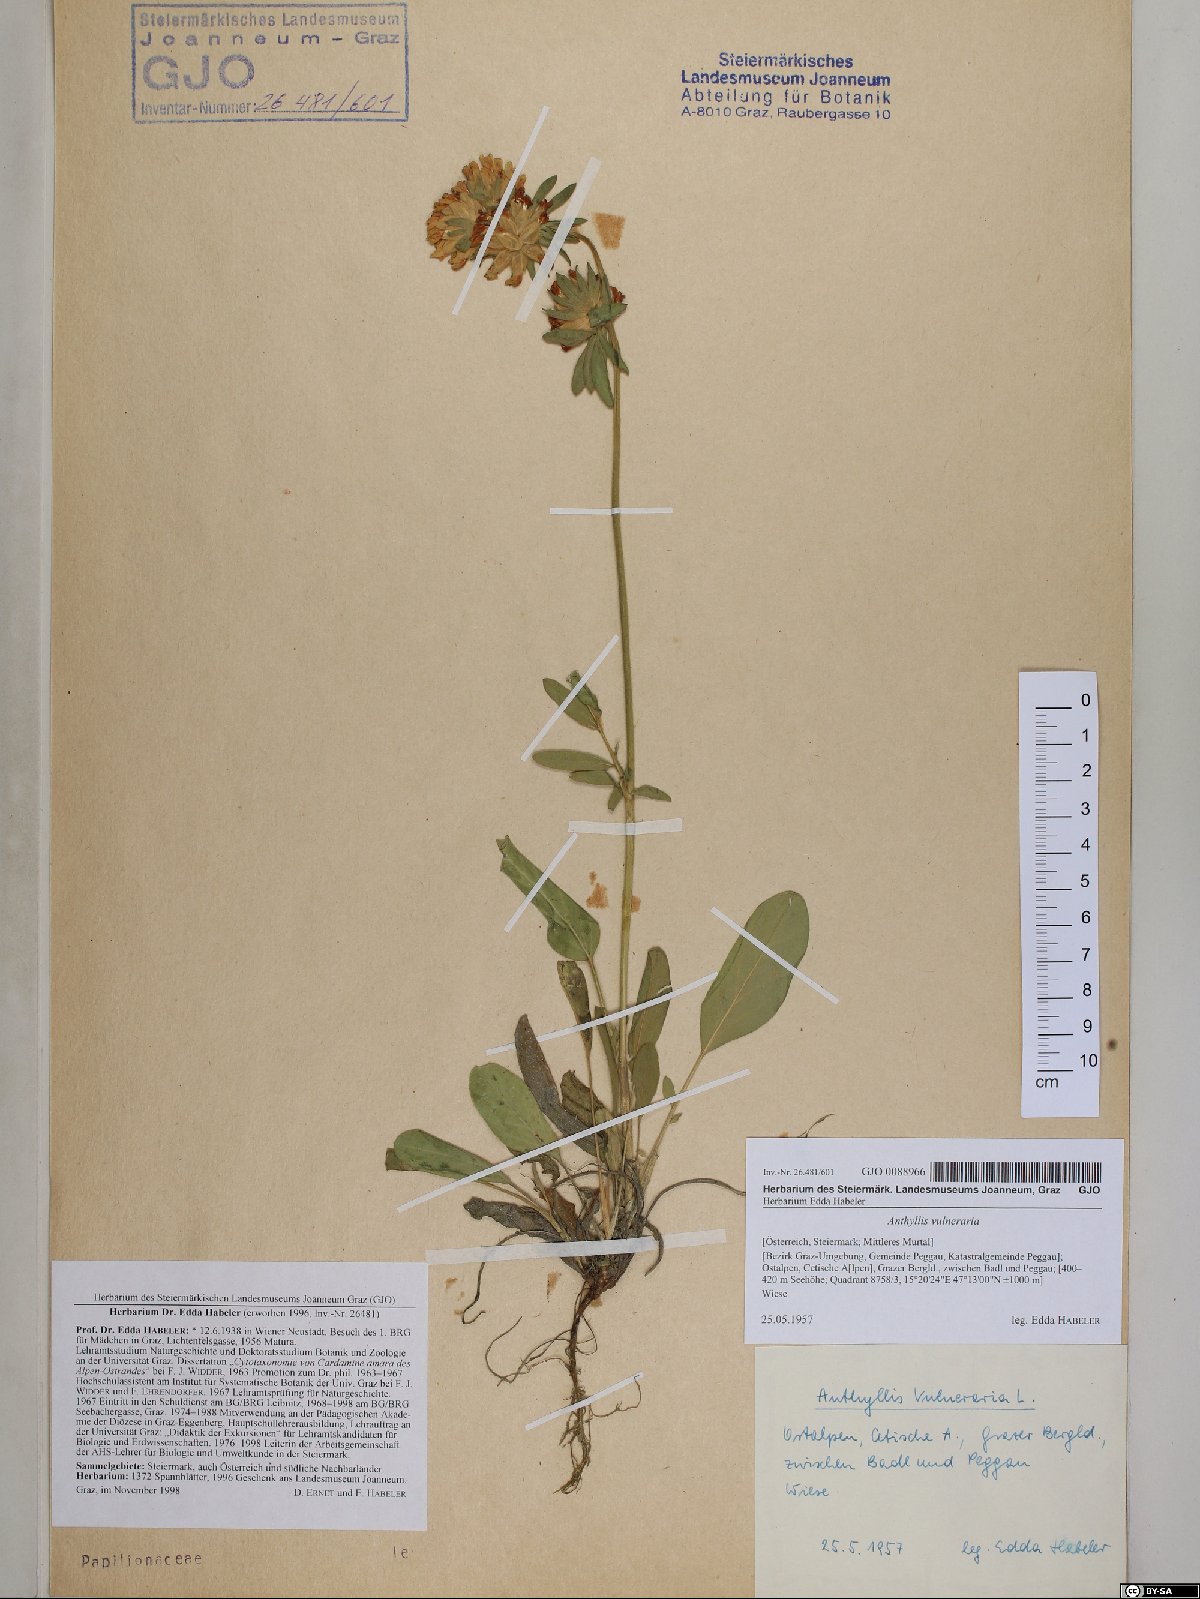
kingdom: Plantae
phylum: Tracheophyta
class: Magnoliopsida
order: Fabales
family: Fabaceae
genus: Anthyllis
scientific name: Anthyllis vulneraria
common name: Kidney vetch
